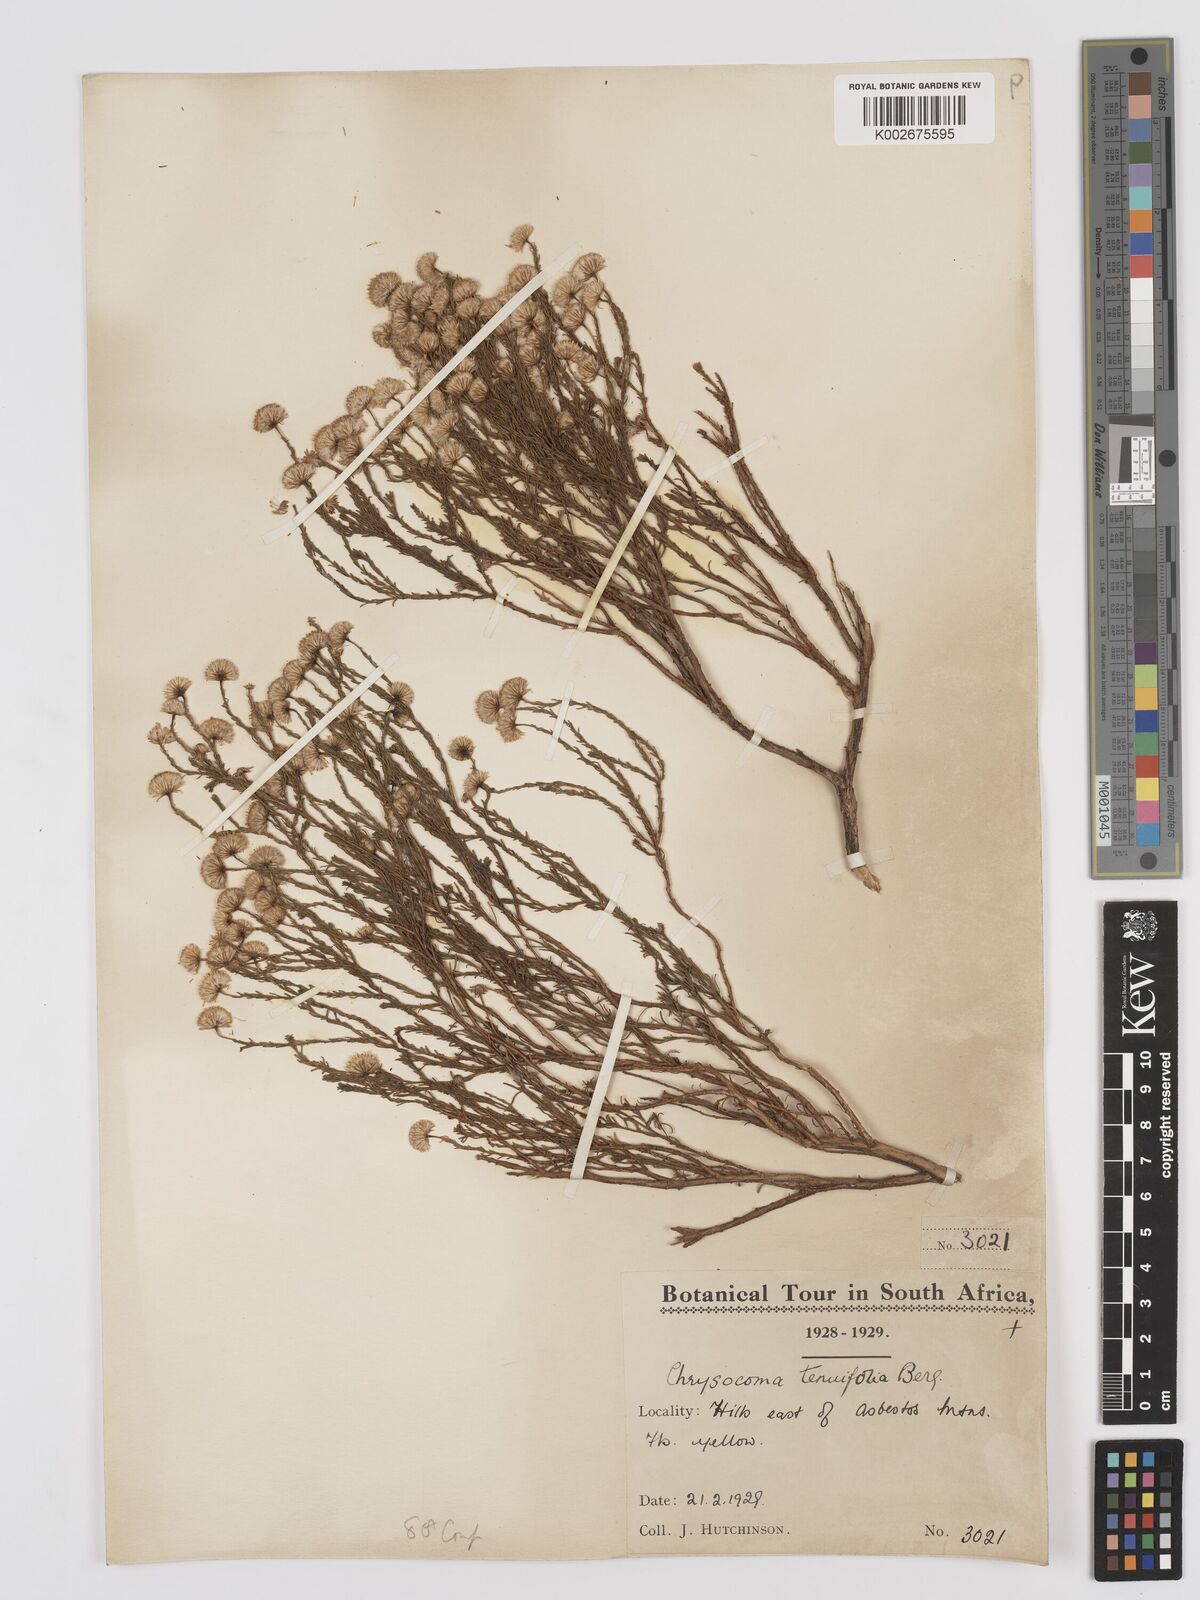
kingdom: Plantae
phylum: Tracheophyta
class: Magnoliopsida
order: Asterales
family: Asteraceae
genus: Chrysocoma
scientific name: Chrysocoma ciliata
